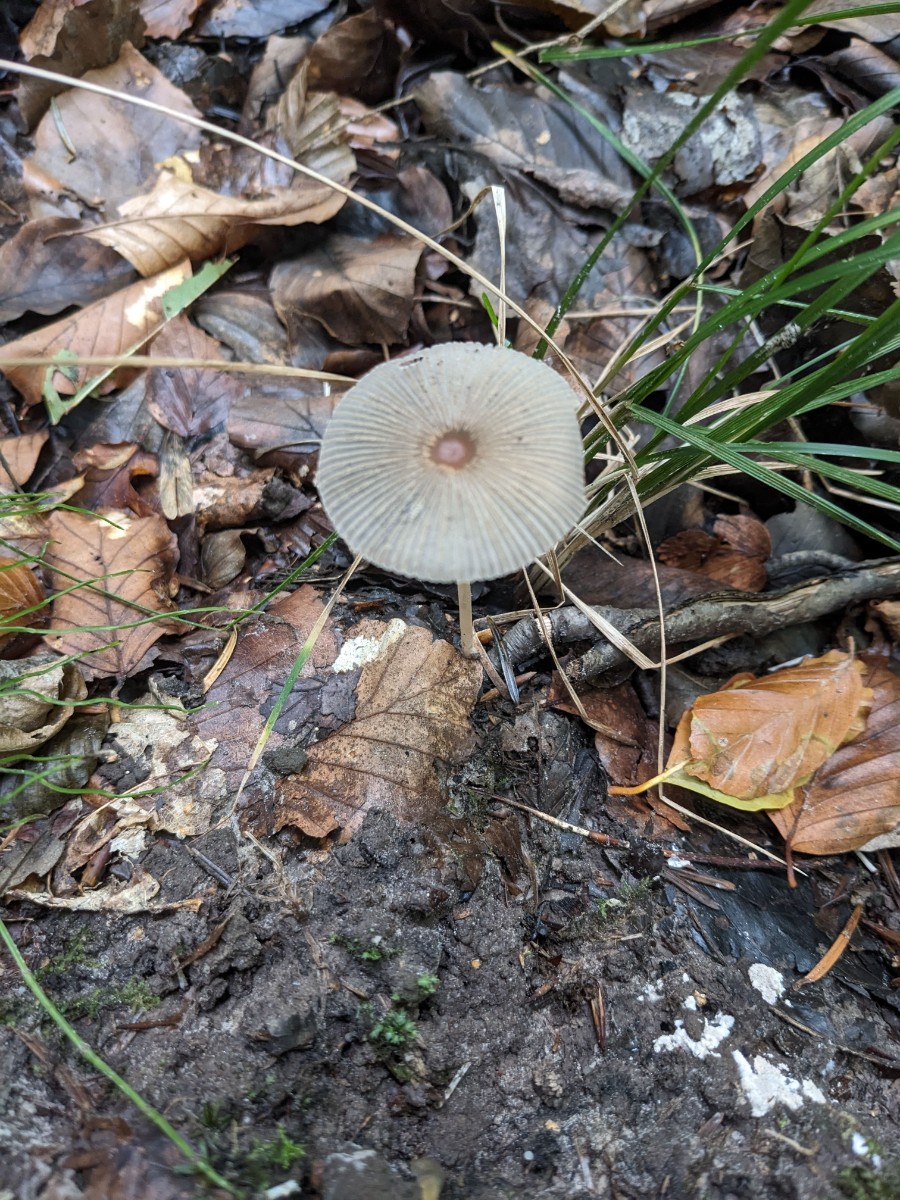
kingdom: Fungi
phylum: Basidiomycota
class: Agaricomycetes
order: Agaricales
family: Psathyrellaceae
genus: Parasola
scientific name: Parasola lactea
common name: glat hjulhat
